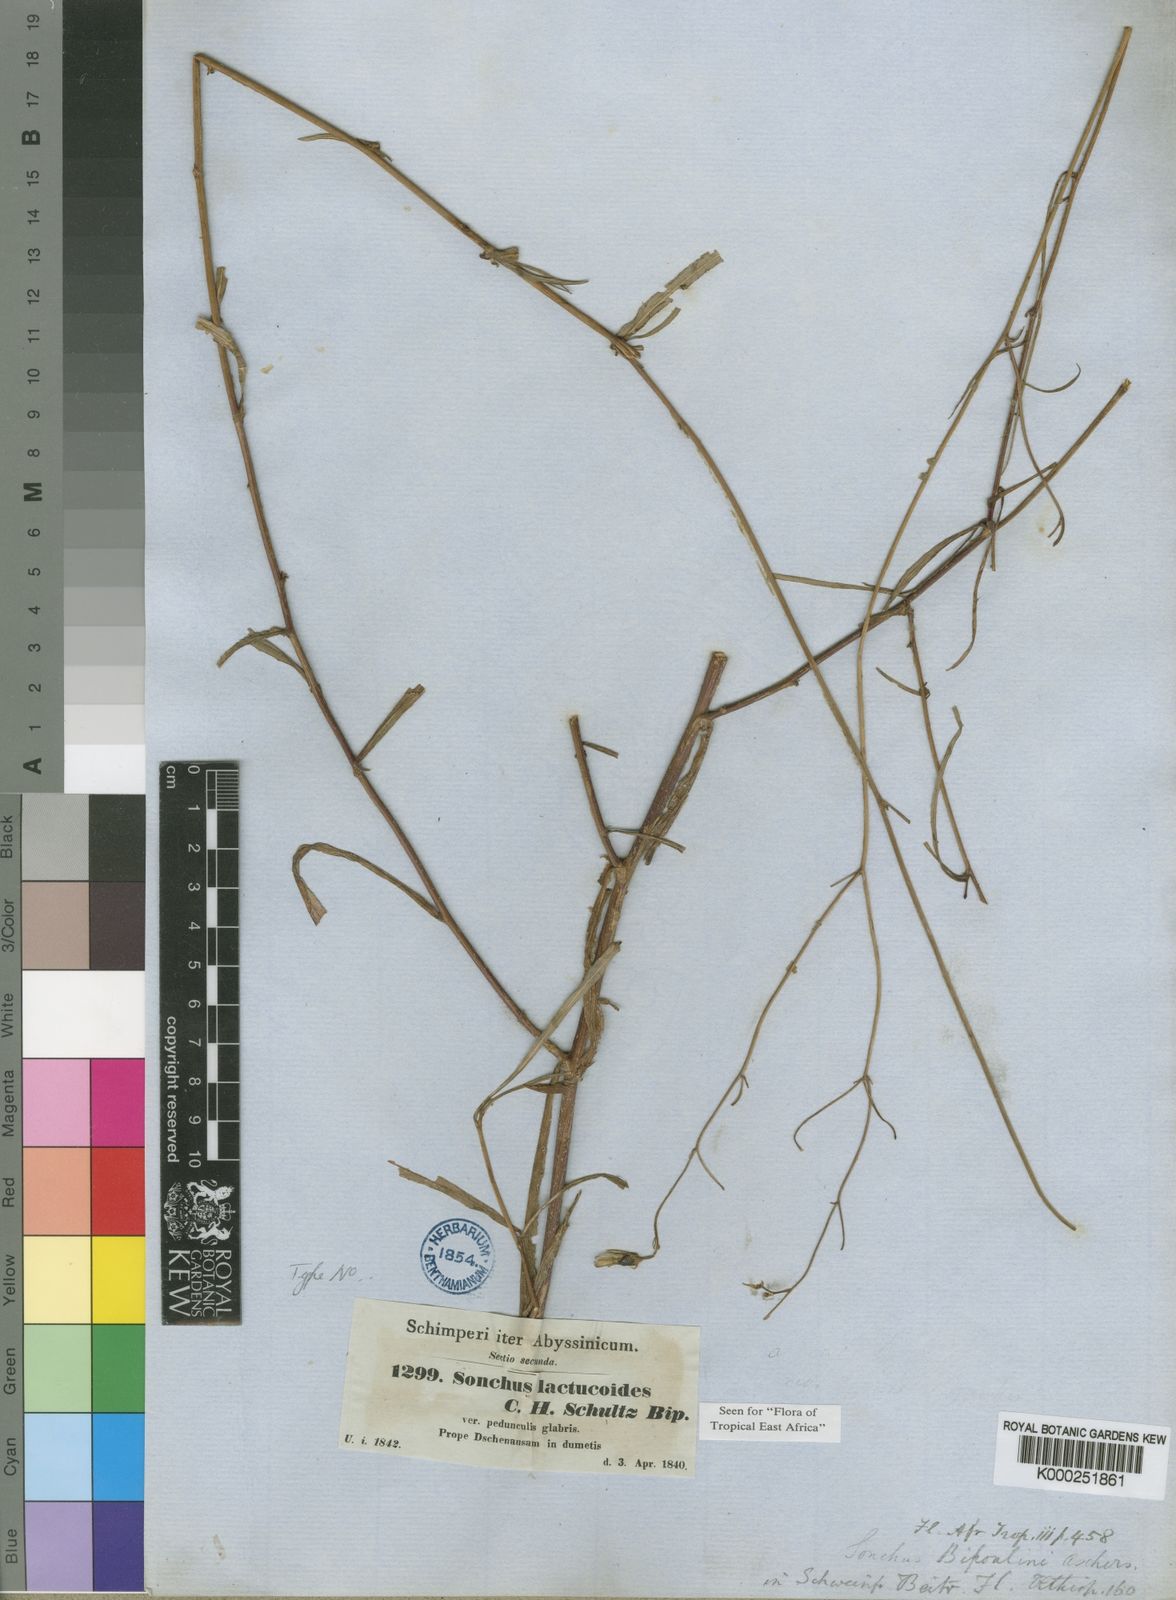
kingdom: Plantae
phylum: Tracheophyta
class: Magnoliopsida
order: Asterales
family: Asteraceae
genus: Sonchus
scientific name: Sonchus
